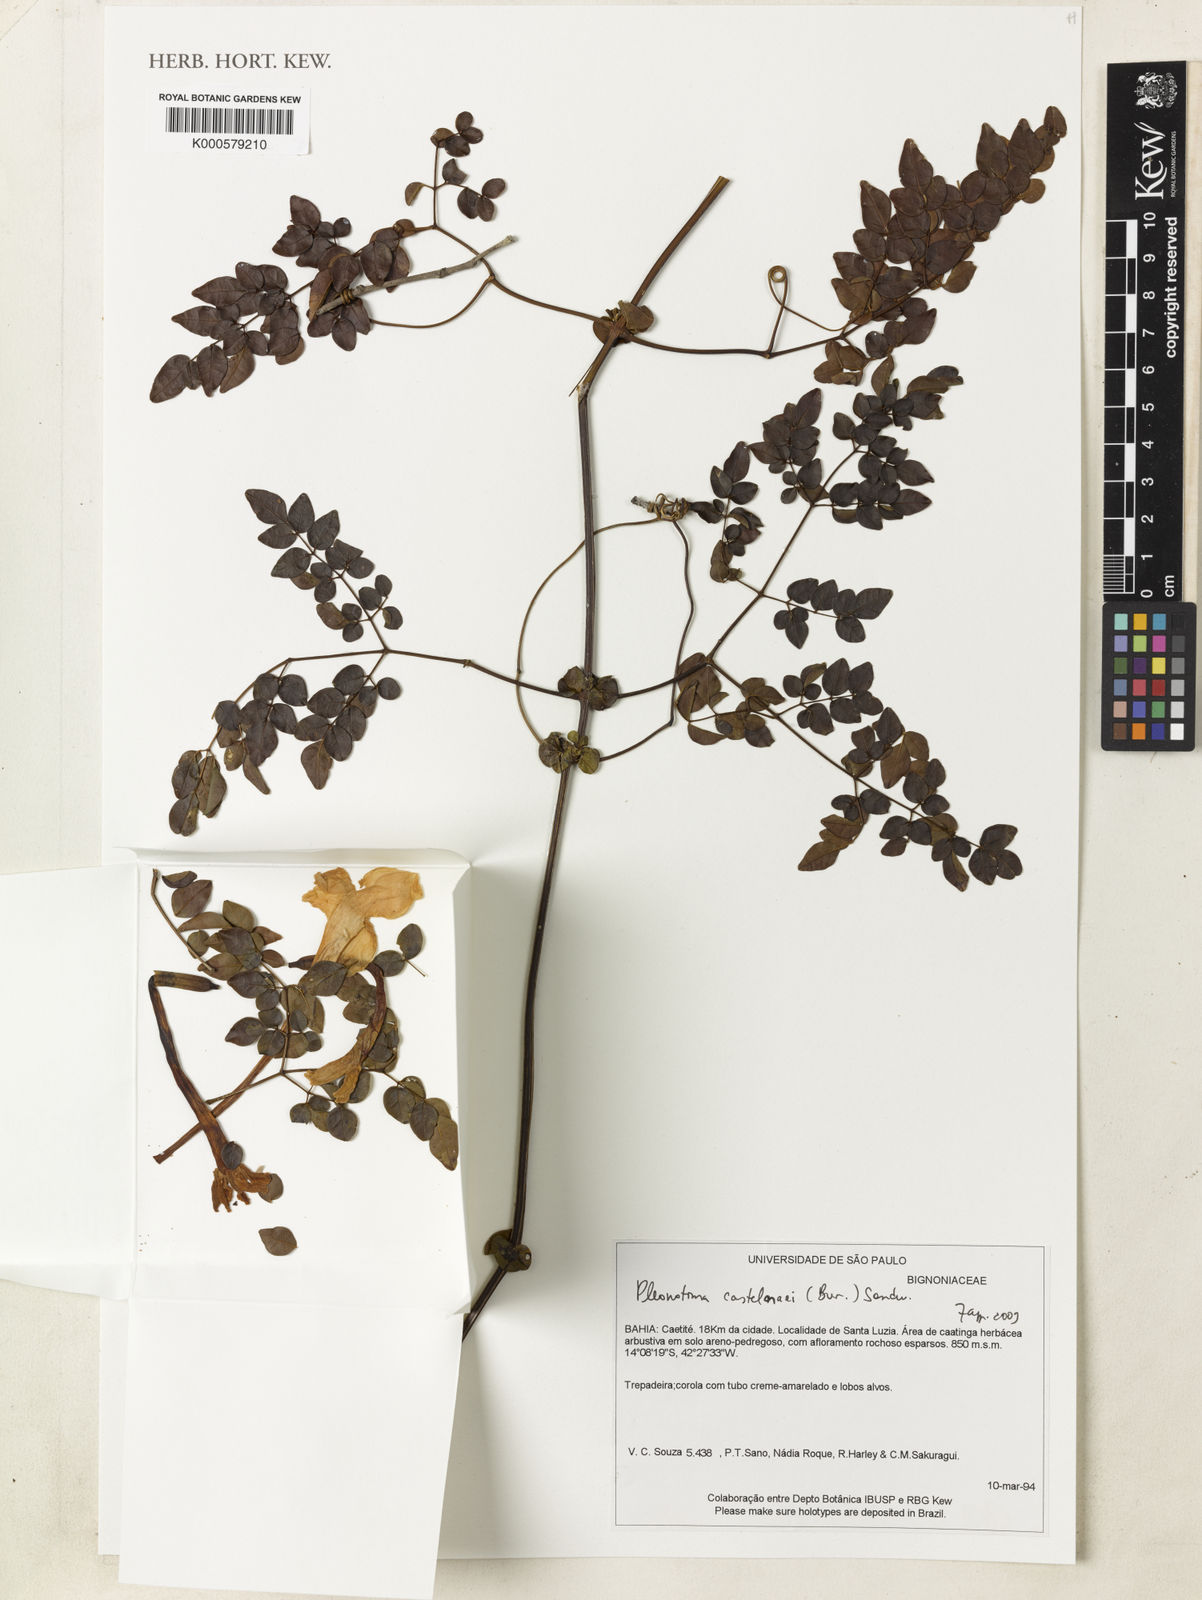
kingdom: Plantae
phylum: Tracheophyta
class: Magnoliopsida
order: Lamiales
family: Bignoniaceae
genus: Pleonotoma
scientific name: Pleonotoma castelnaei
